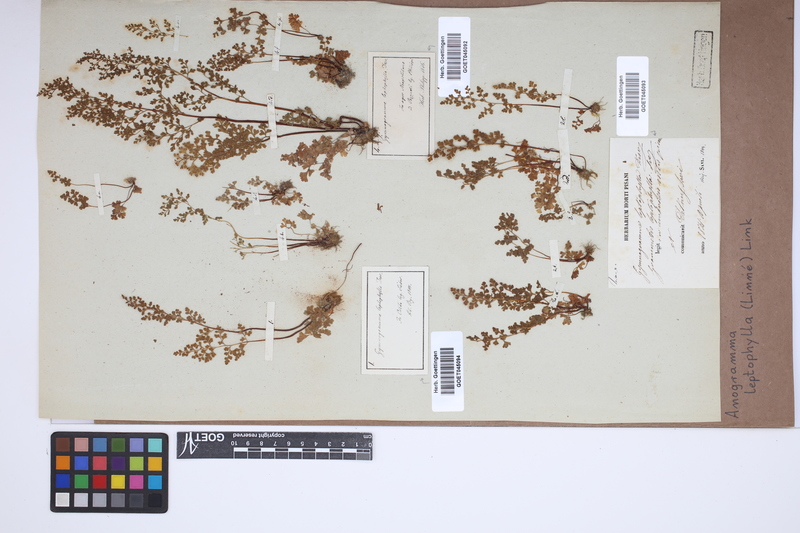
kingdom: Plantae
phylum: Tracheophyta
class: Polypodiopsida
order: Polypodiales
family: Pteridaceae
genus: Anogramma
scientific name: Anogramma leptophylla
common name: Jersey fern
